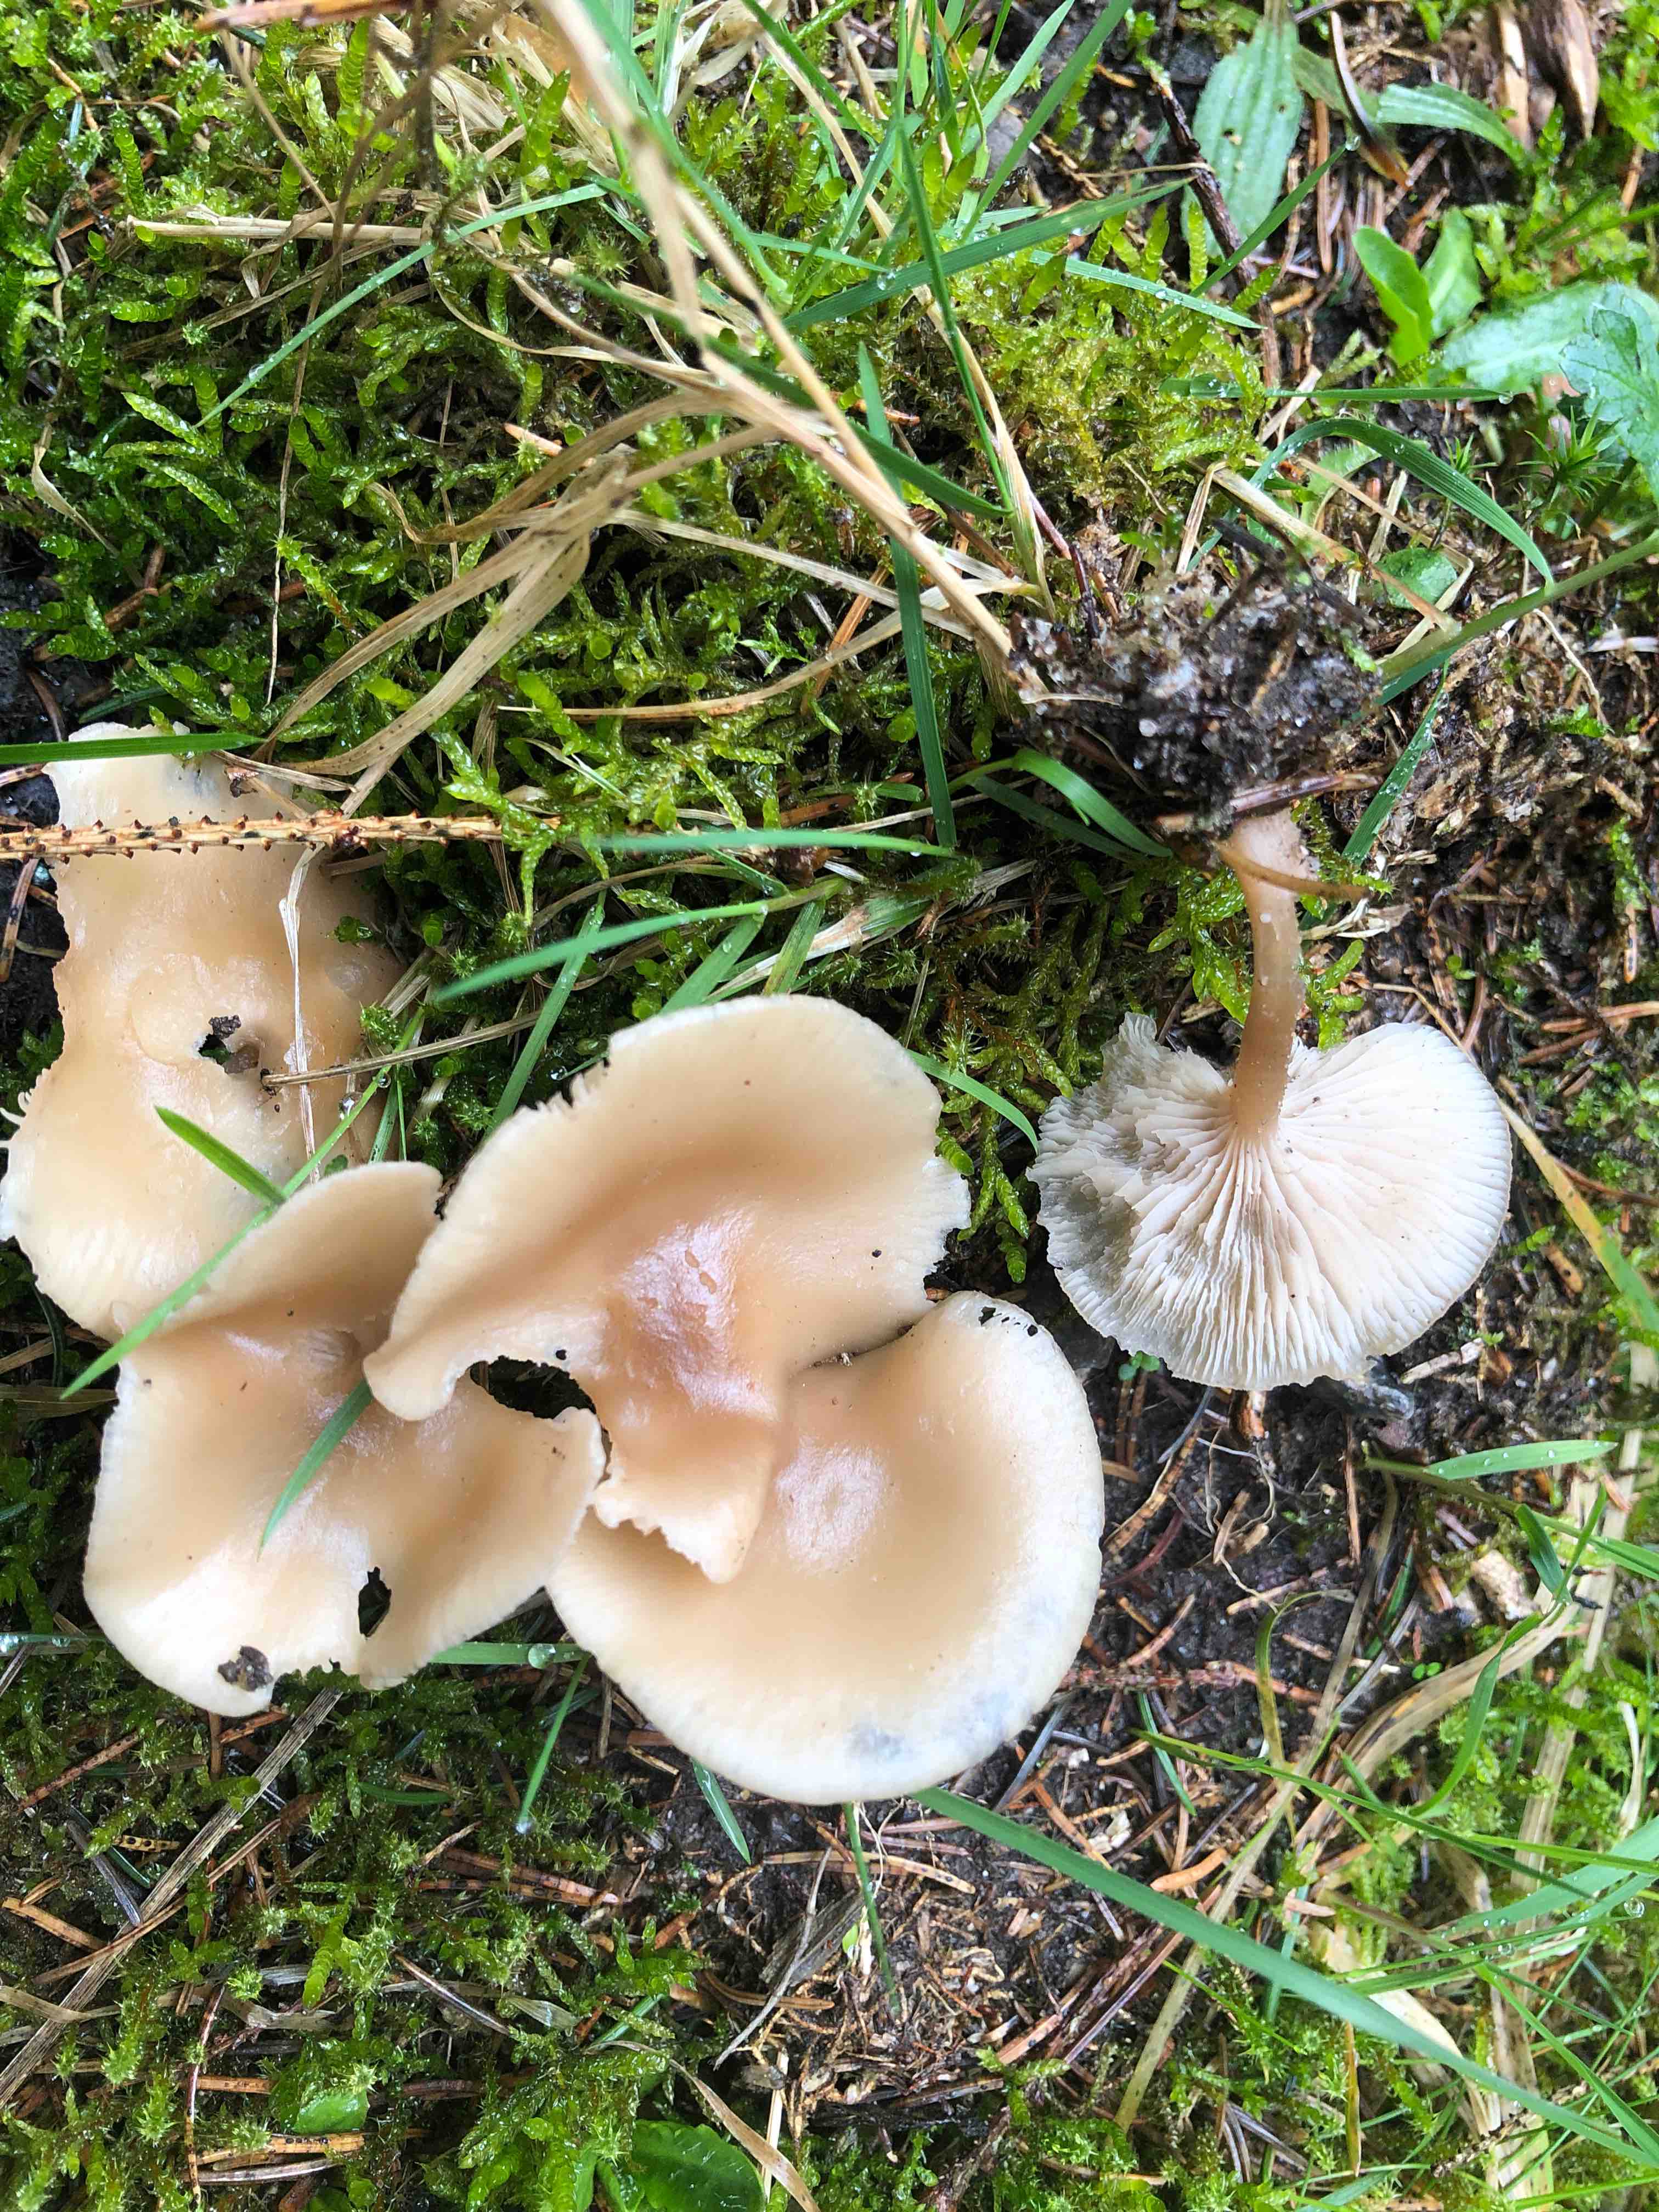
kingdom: Fungi
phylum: Basidiomycota
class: Agaricomycetes
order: Agaricales
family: Tricholomataceae
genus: Clitocybe
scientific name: Clitocybe fragrans
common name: vellugtende tragthat
